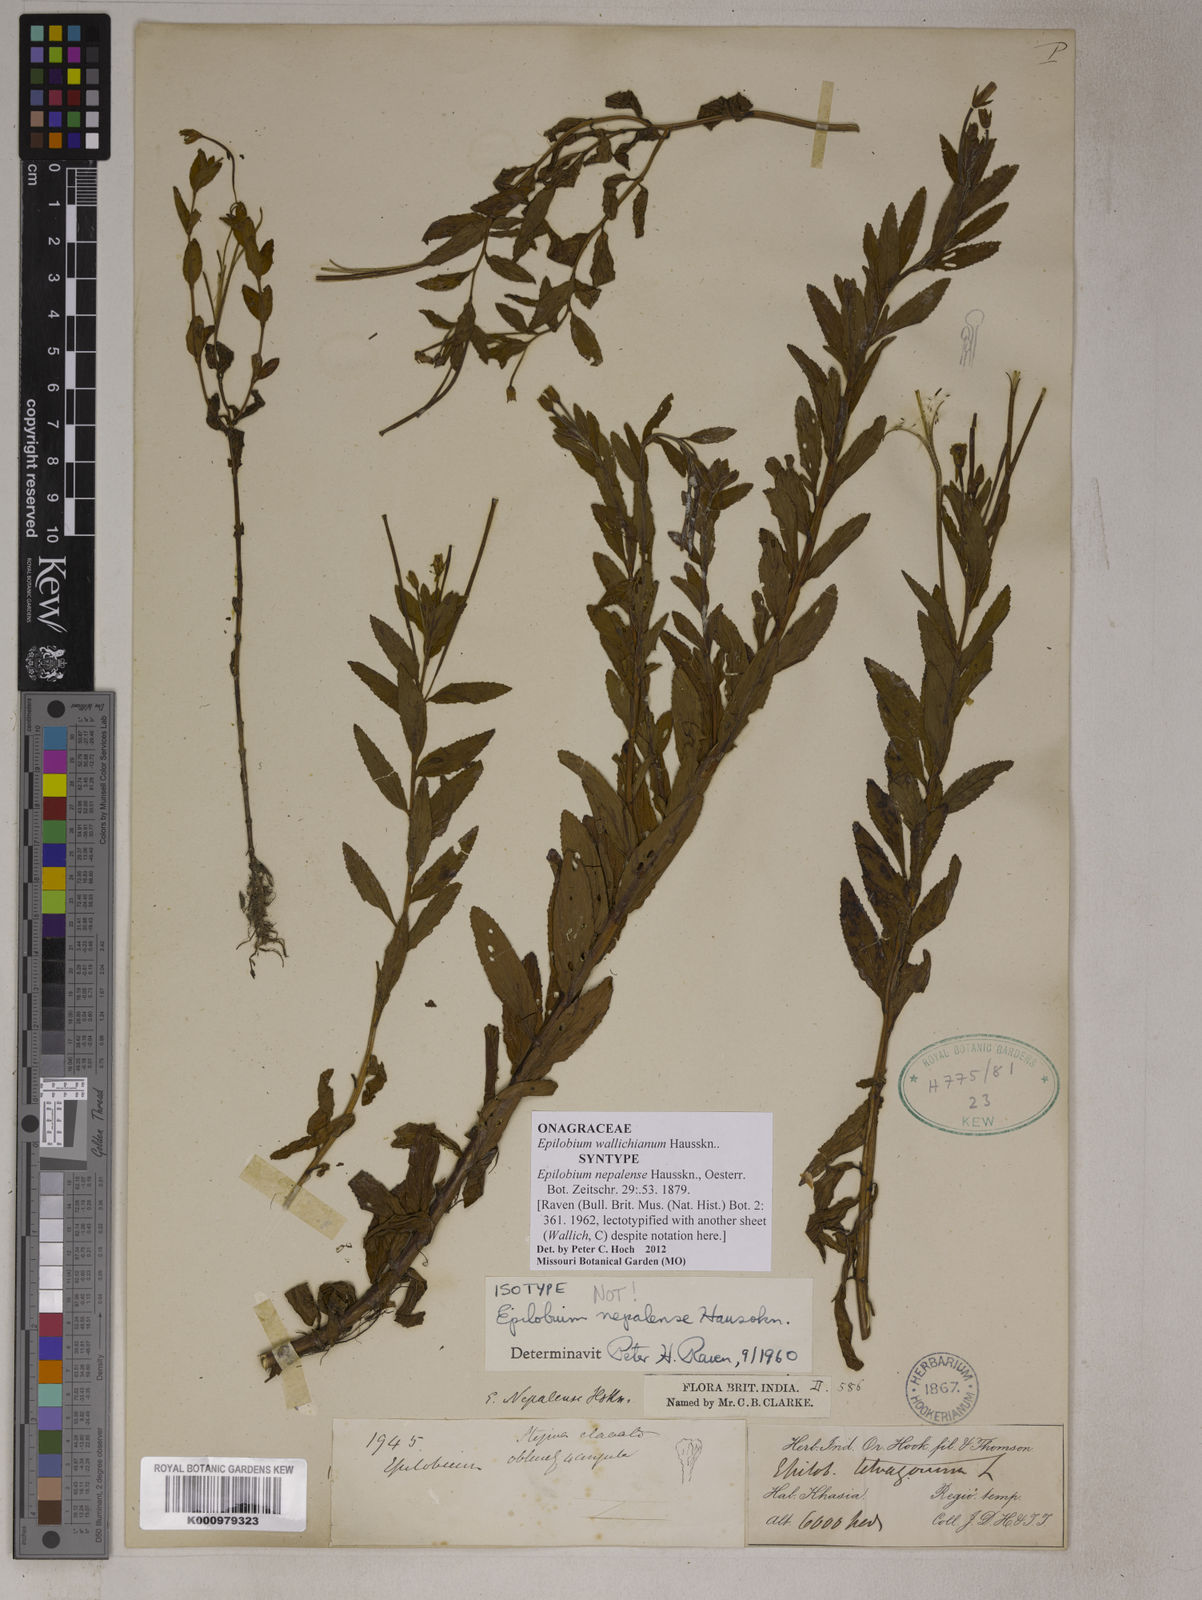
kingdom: Plantae
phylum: Tracheophyta
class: Magnoliopsida
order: Myrtales
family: Onagraceae
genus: Epilobium
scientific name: Epilobium
